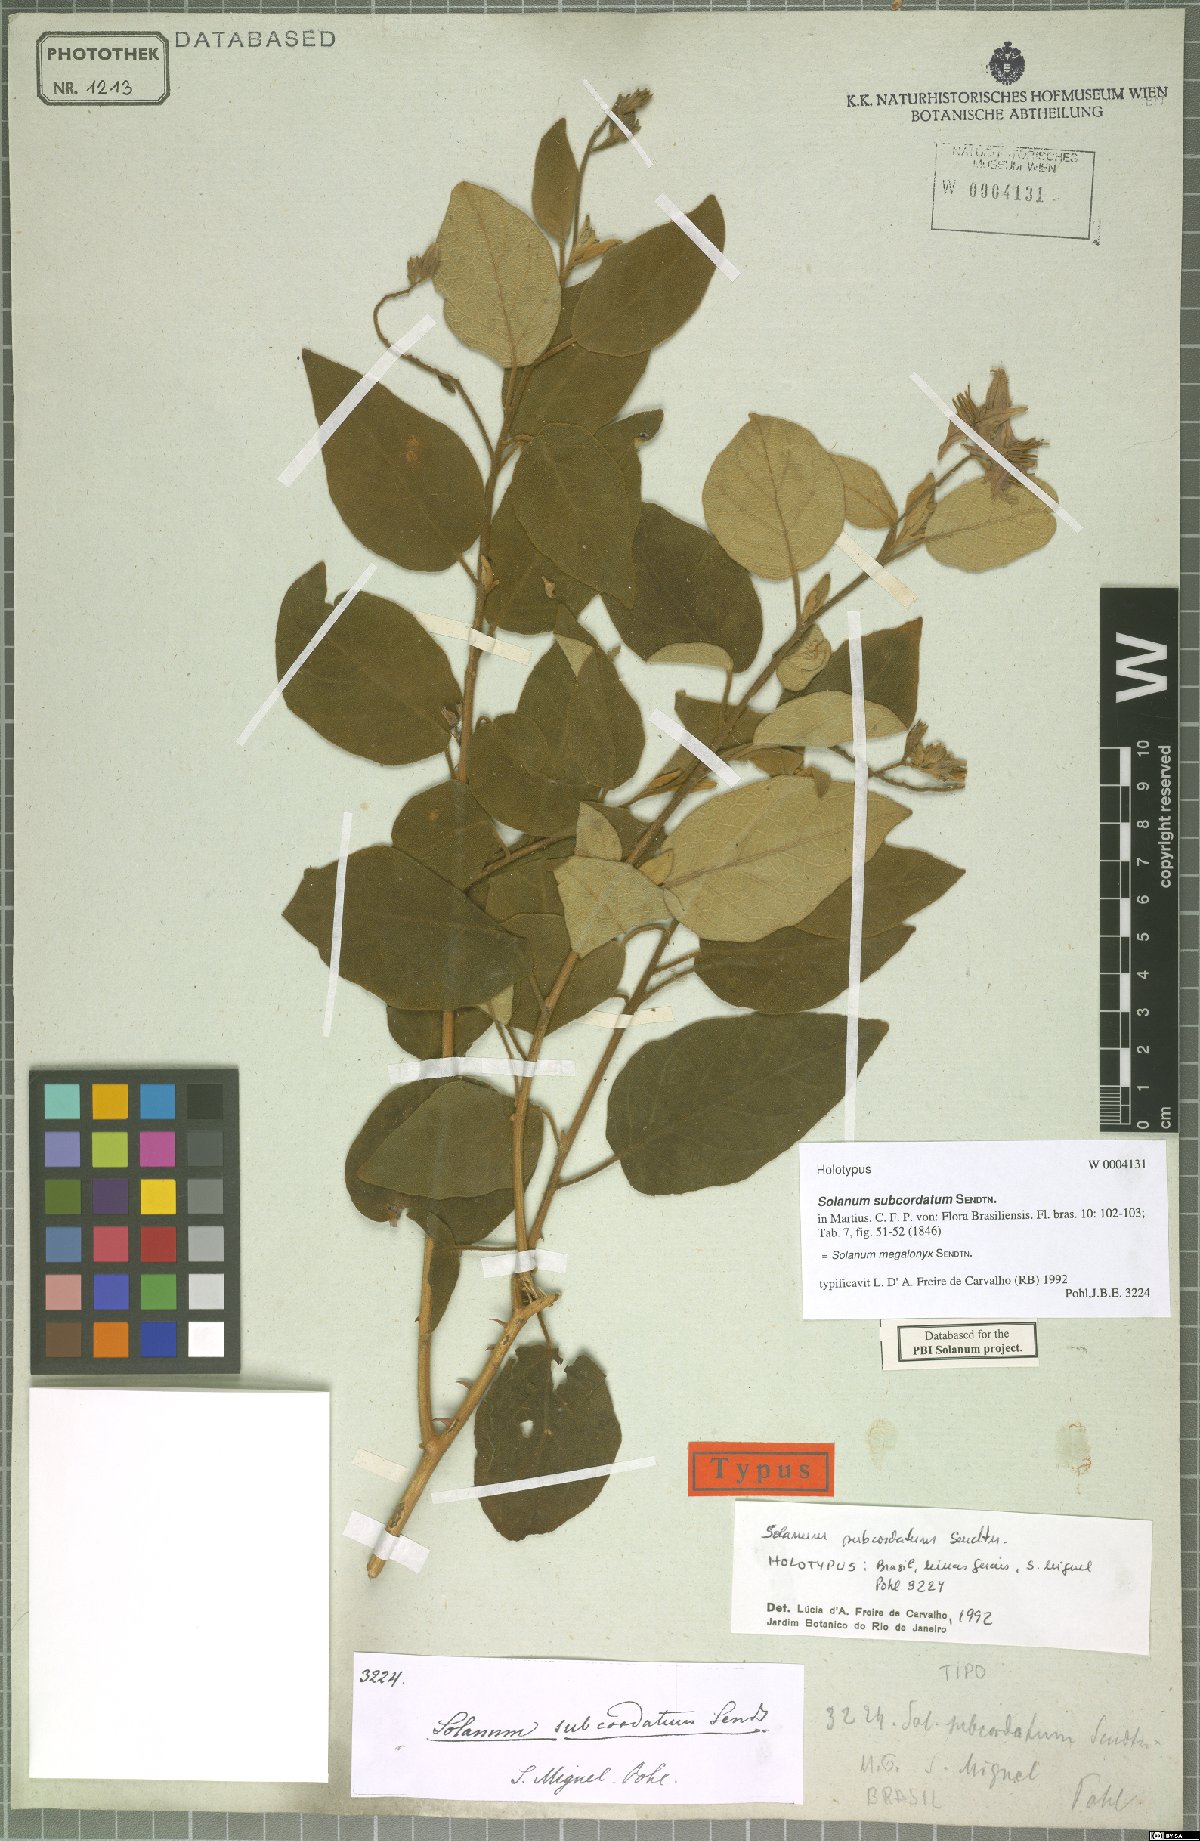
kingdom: Plantae
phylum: Tracheophyta
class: Magnoliopsida
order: Solanales
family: Solanaceae
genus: Solanum
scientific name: Solanum megalonyx
